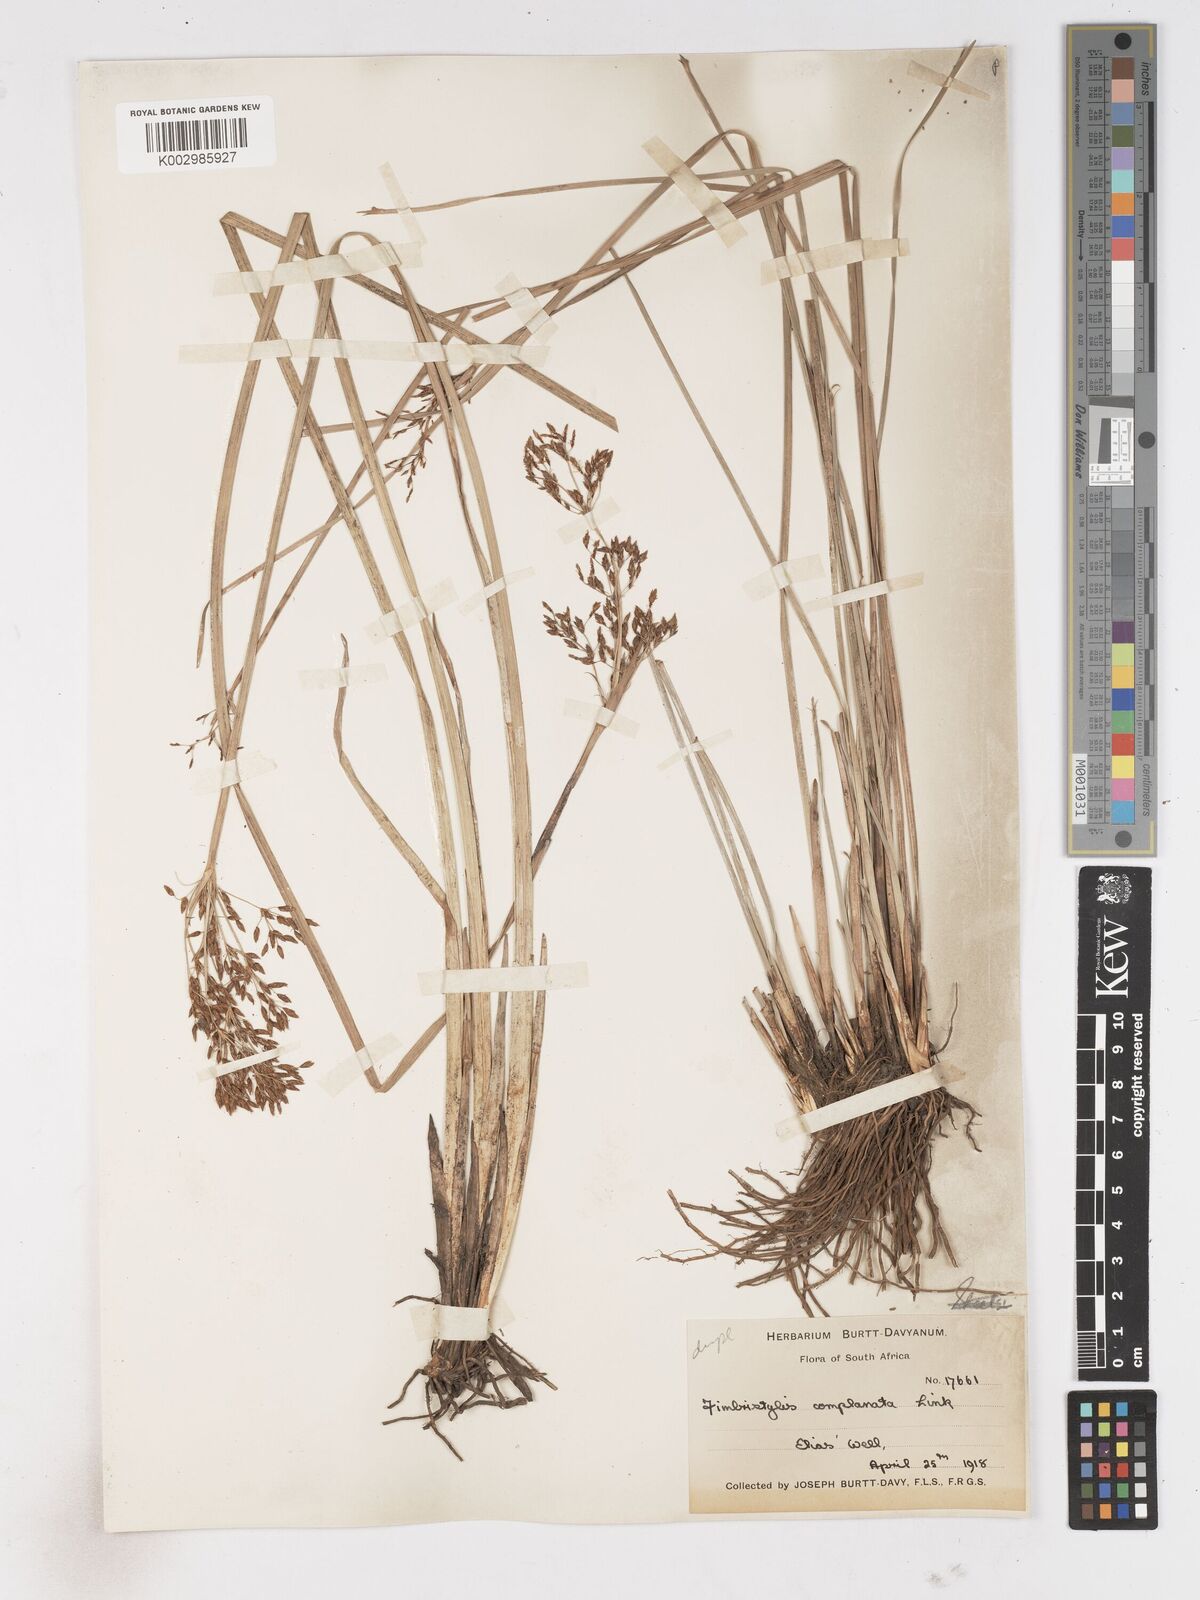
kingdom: Plantae
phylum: Tracheophyta
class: Liliopsida
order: Poales
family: Cyperaceae
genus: Fimbristylis
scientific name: Fimbristylis complanata
